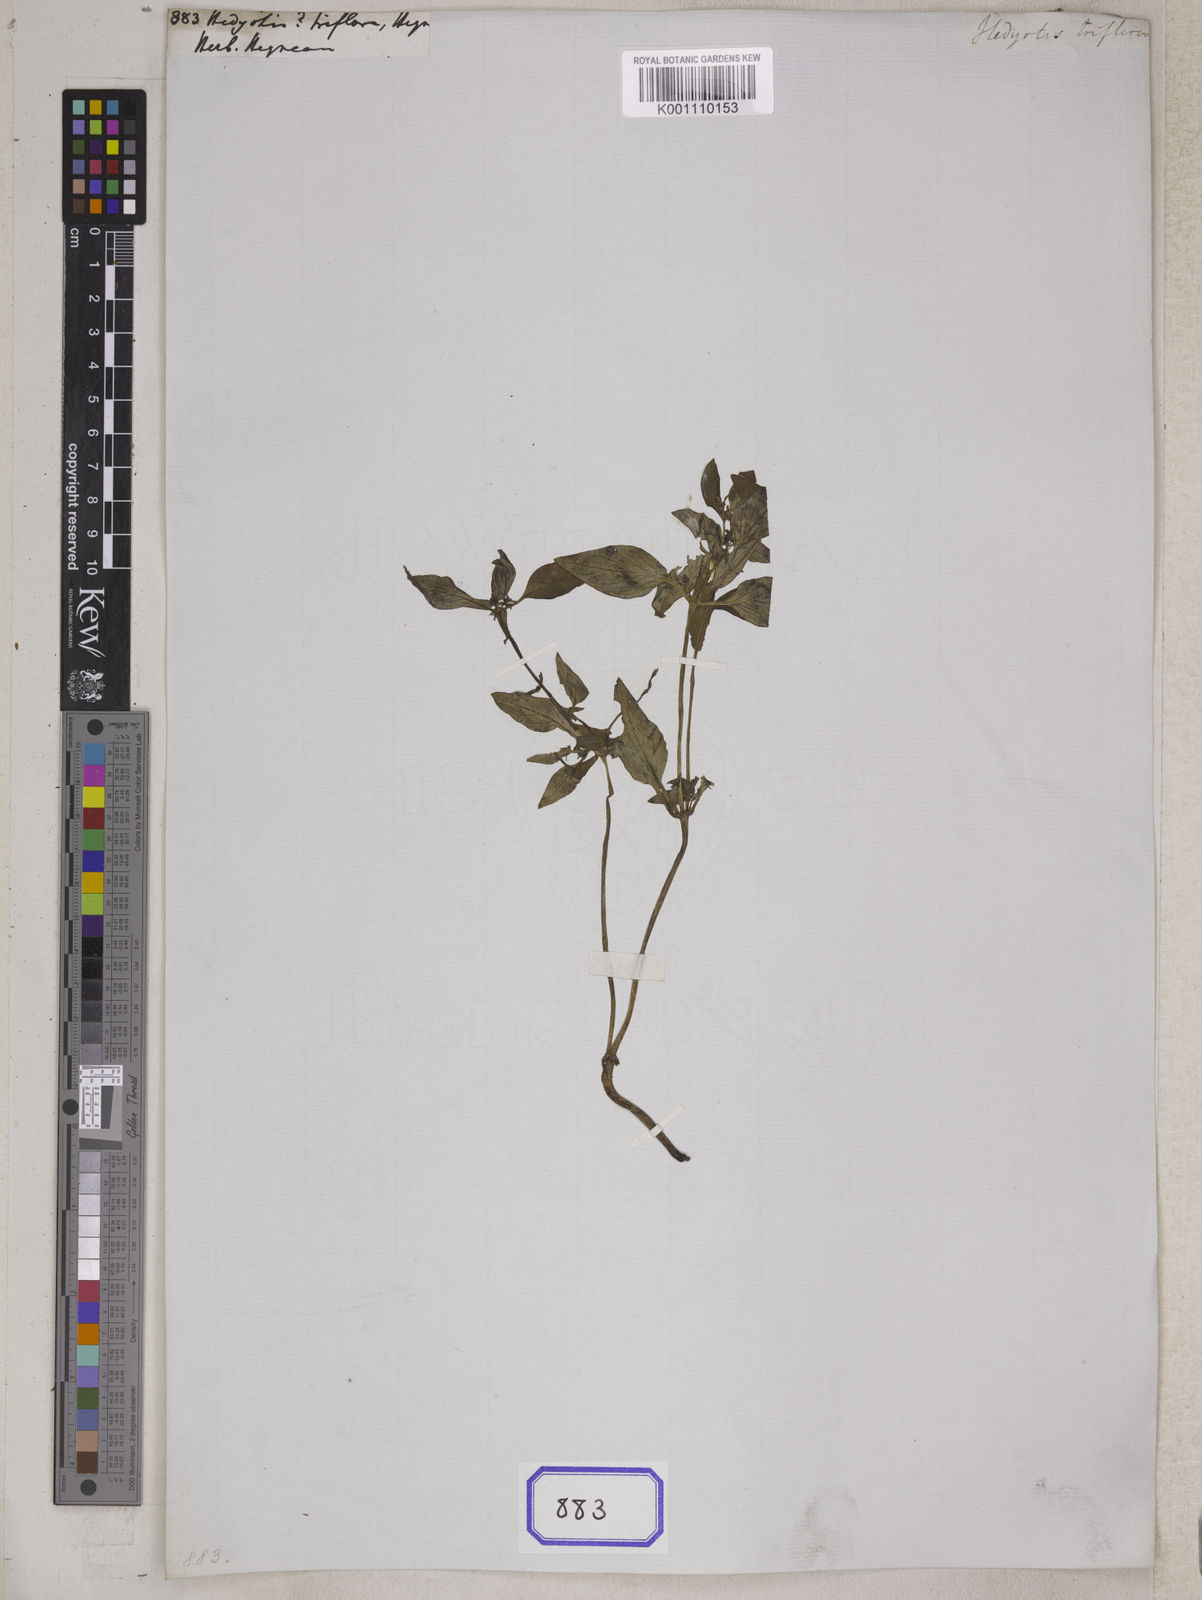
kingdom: Plantae
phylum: Tracheophyta
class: Magnoliopsida
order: Gentianales
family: Rubiaceae
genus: Hedyotis
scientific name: Hedyotis
